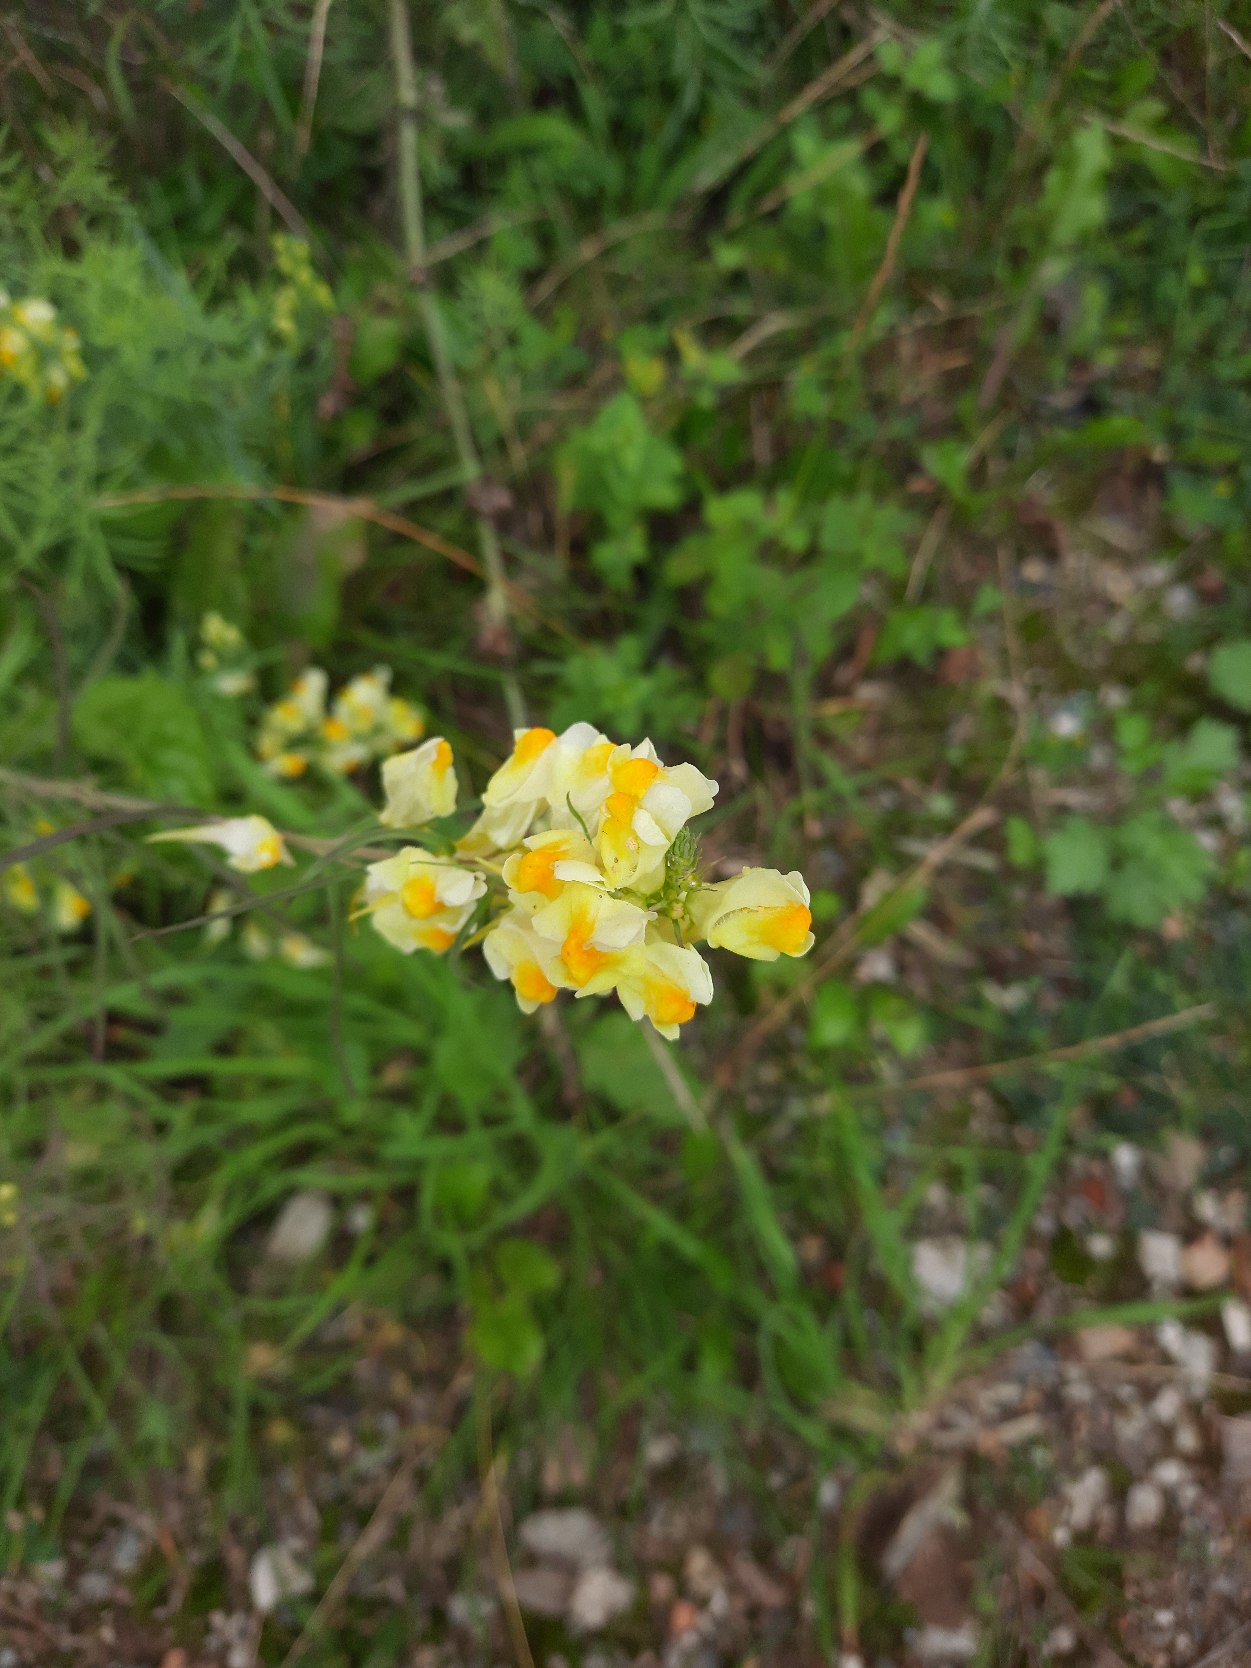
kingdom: Plantae
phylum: Tracheophyta
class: Magnoliopsida
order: Lamiales
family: Plantaginaceae
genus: Linaria
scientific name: Linaria vulgaris
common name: Almindelig torskemund
